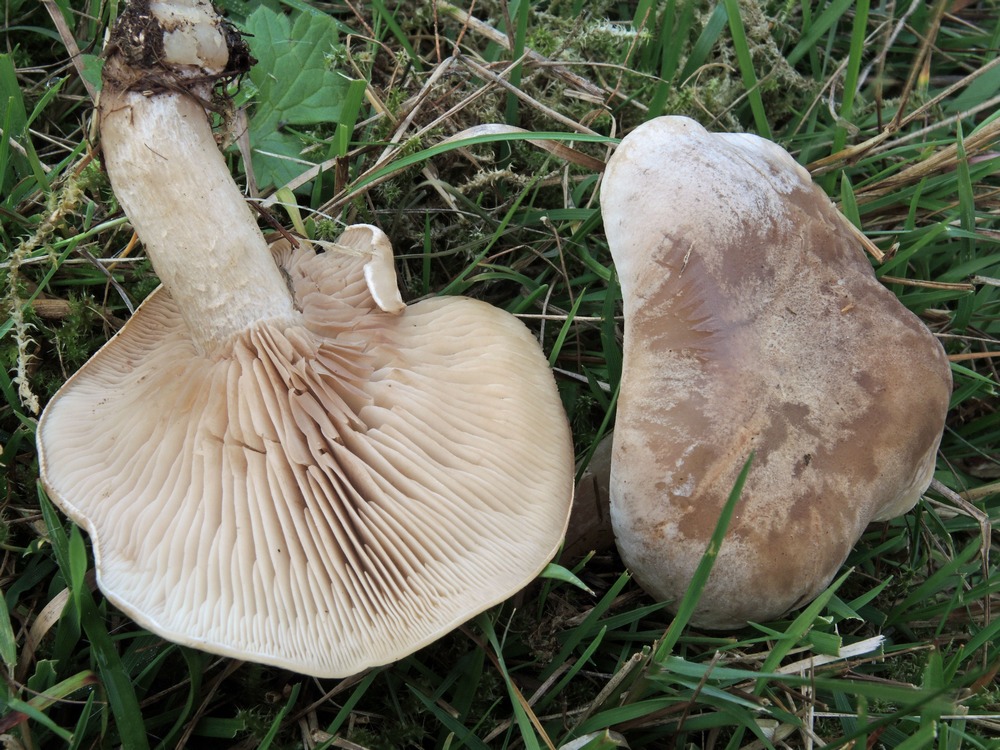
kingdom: Fungi
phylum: Basidiomycota
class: Agaricomycetes
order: Agaricales
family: Tricholomataceae
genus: Lepista
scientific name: Lepista panaeolus
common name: marmoreret hekseringshat
